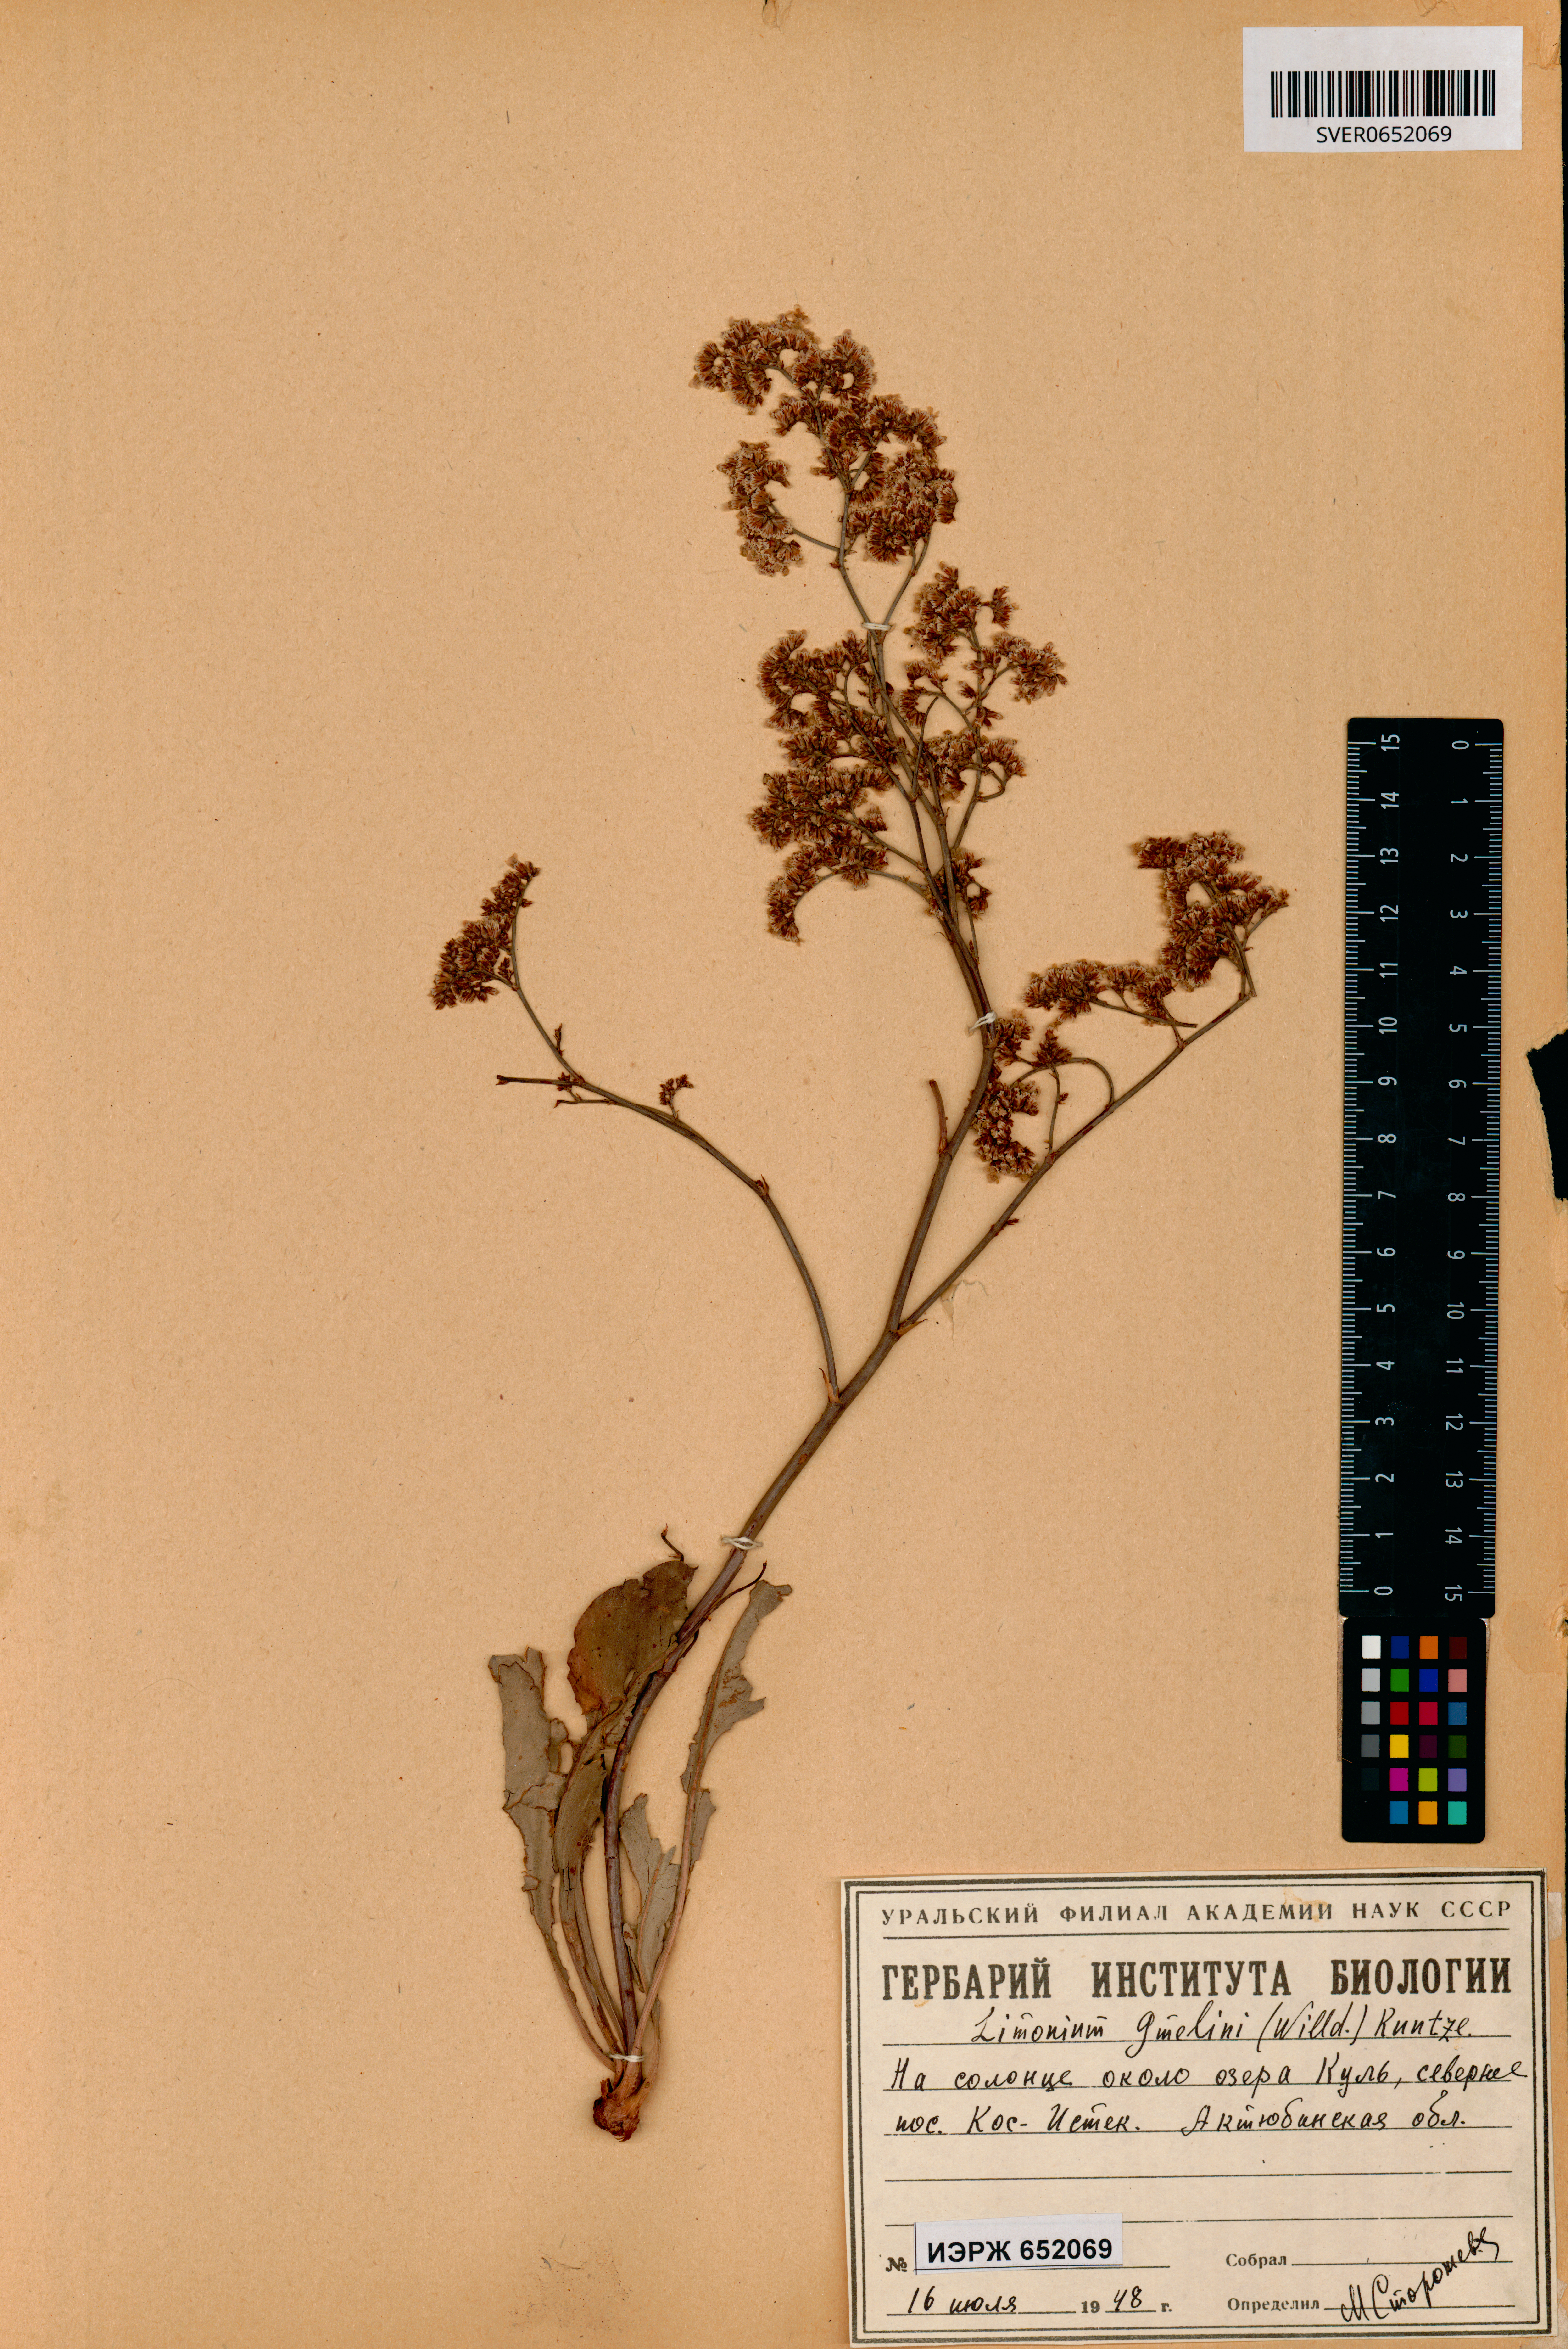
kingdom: Plantae
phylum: Tracheophyta
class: Magnoliopsida
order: Caryophyllales
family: Plumbaginaceae
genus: Limonium
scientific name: Limonium gmelini
